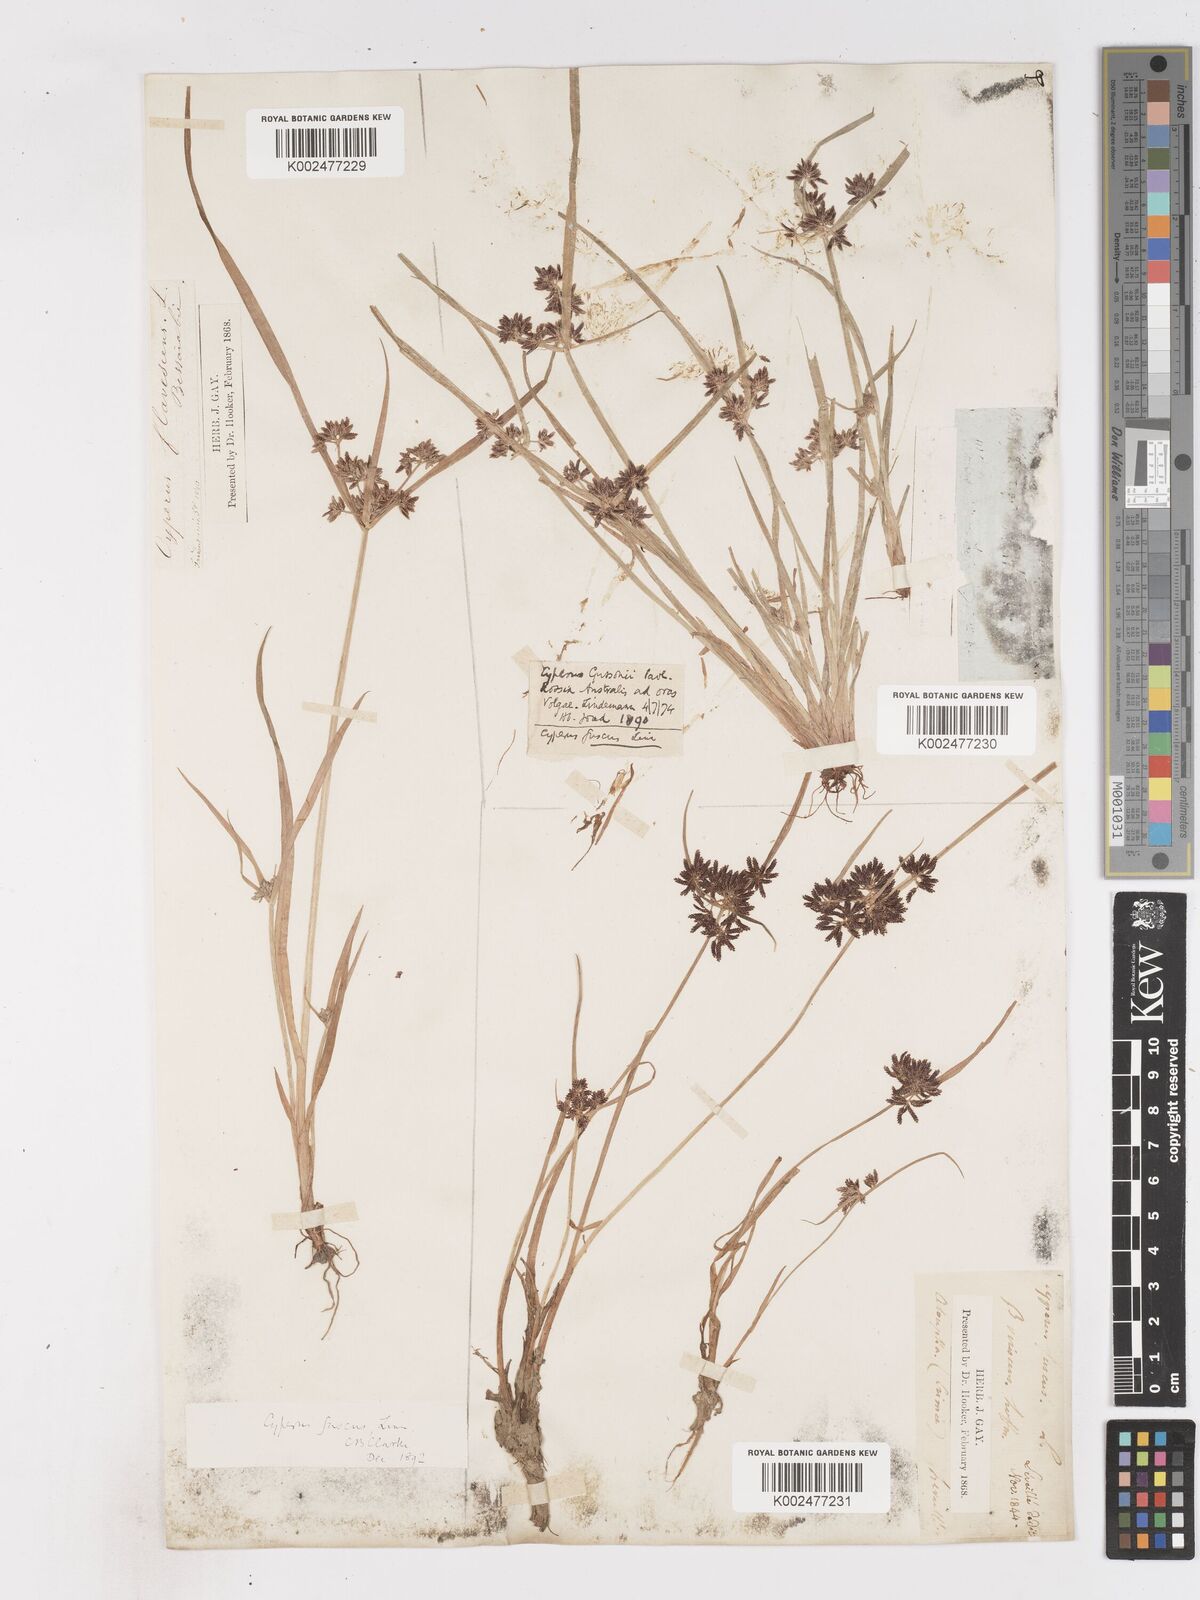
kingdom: Plantae
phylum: Tracheophyta
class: Liliopsida
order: Poales
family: Cyperaceae
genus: Cyperus
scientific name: Cyperus fuscus
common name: Brown galingale
